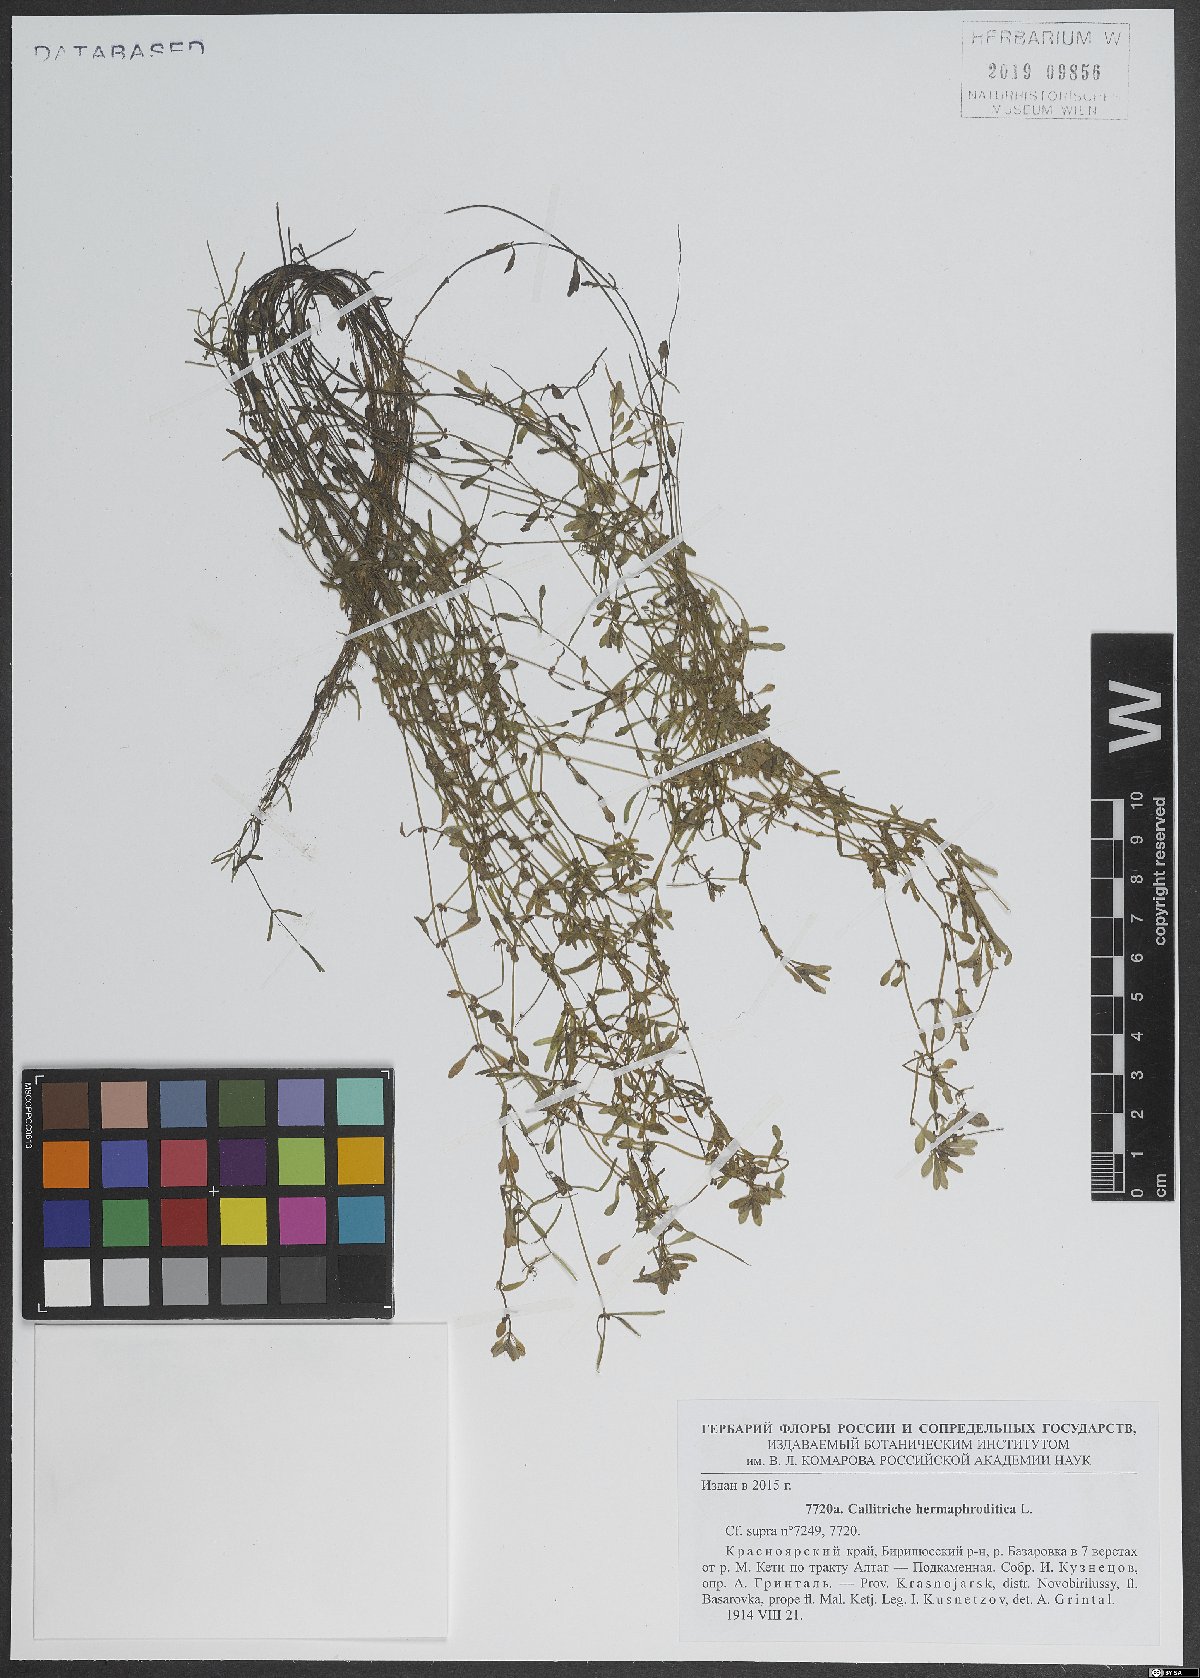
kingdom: Plantae
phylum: Tracheophyta
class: Magnoliopsida
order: Lamiales
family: Plantaginaceae
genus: Callitriche
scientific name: Callitriche palustris
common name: Spring water-starwort
